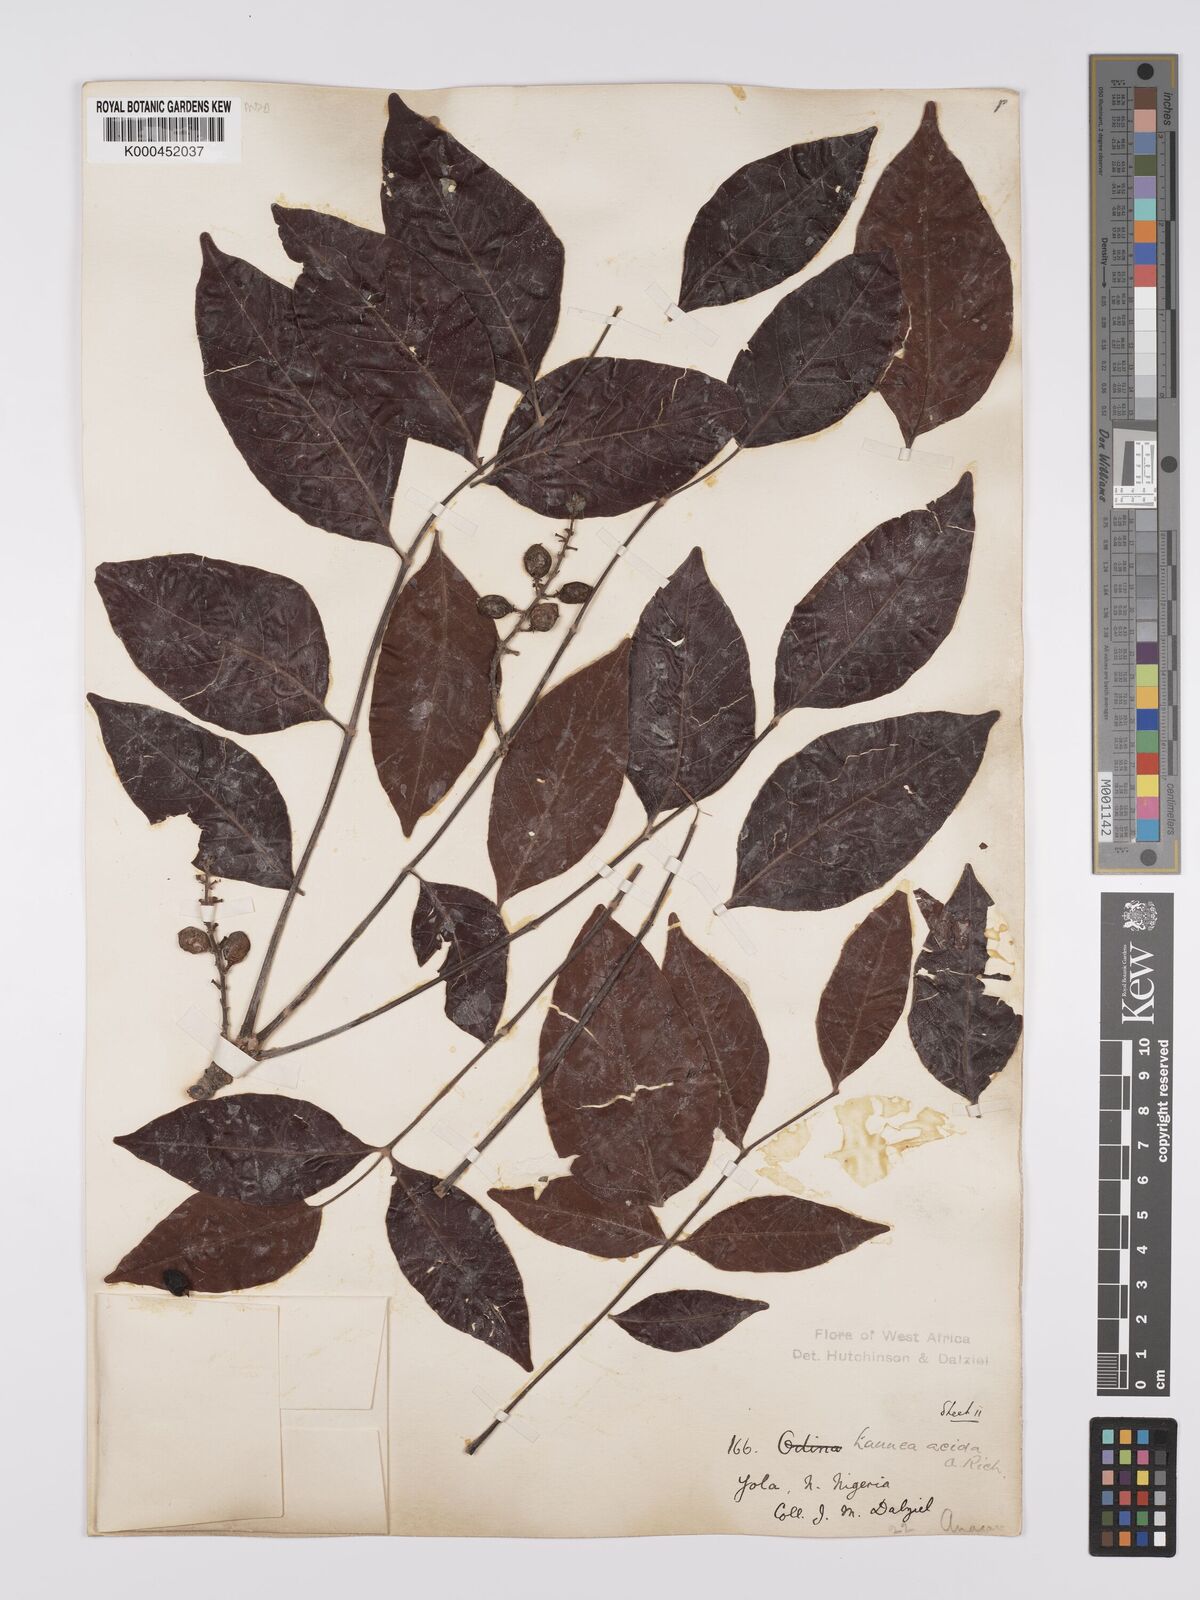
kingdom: Plantae
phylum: Tracheophyta
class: Magnoliopsida
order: Sapindales
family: Anacardiaceae
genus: Lannea
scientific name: Lannea acida
